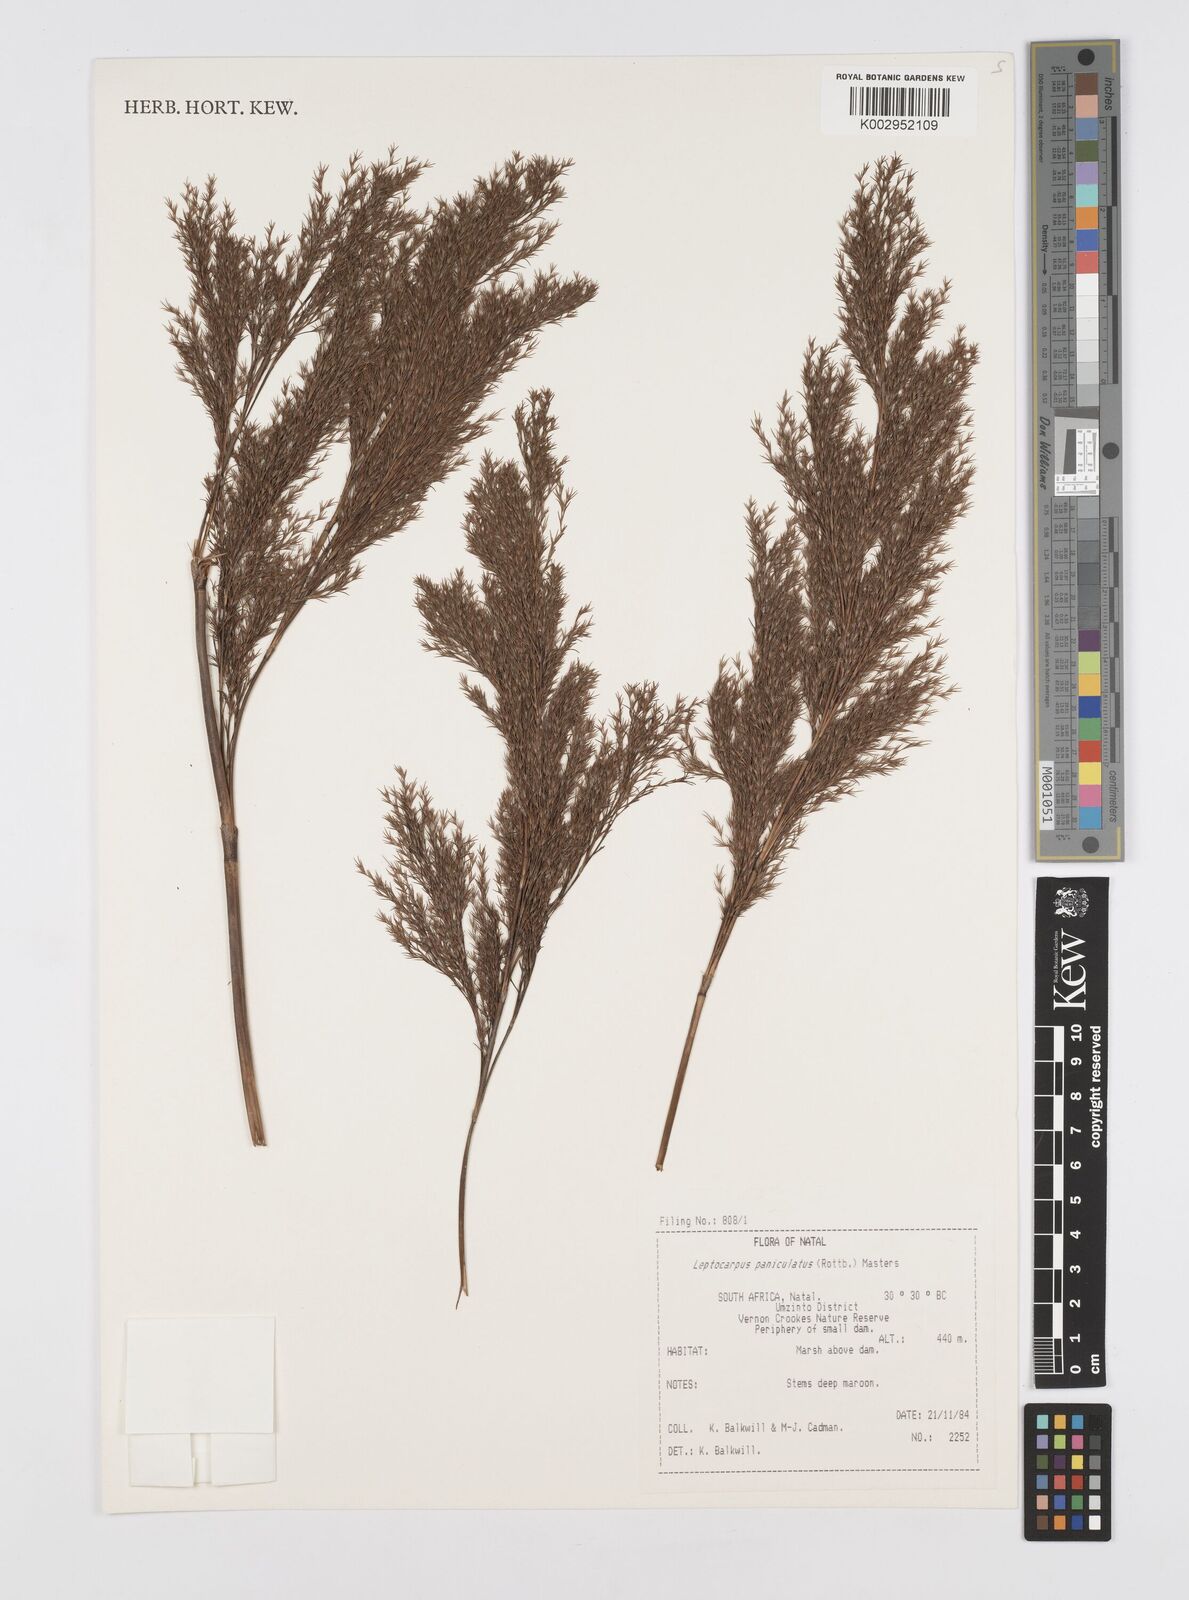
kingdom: Plantae
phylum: Tracheophyta
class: Liliopsida
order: Poales
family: Restionaceae
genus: Restio
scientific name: Restio paniculatus
